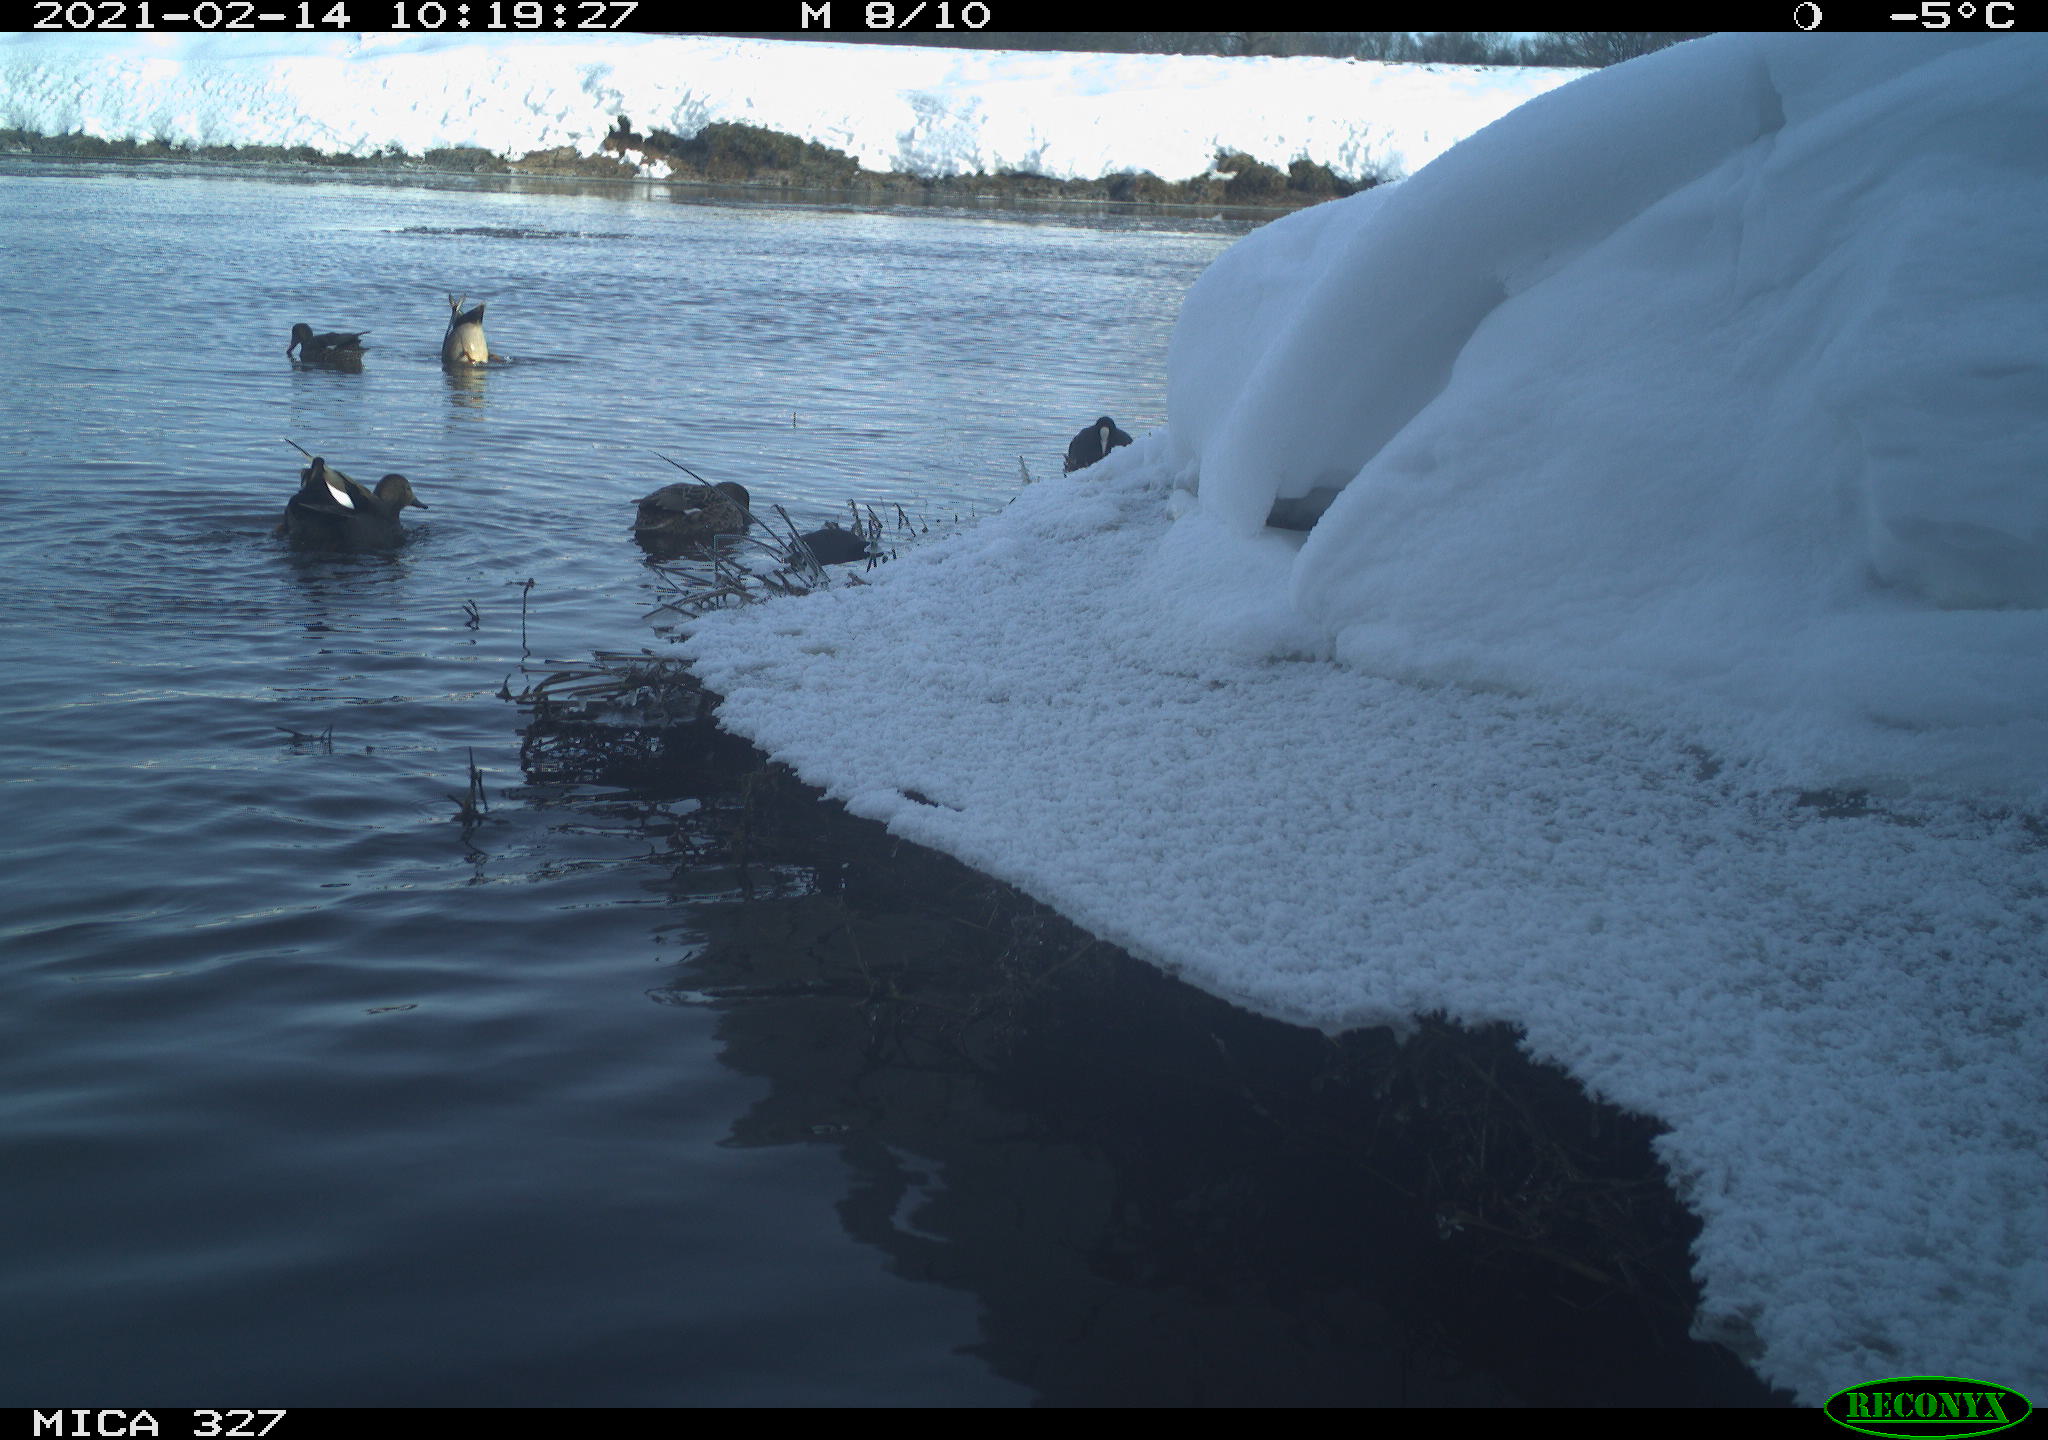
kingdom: Animalia
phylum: Chordata
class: Aves
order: Gruiformes
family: Rallidae
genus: Fulica
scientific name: Fulica atra
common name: Eurasian coot
